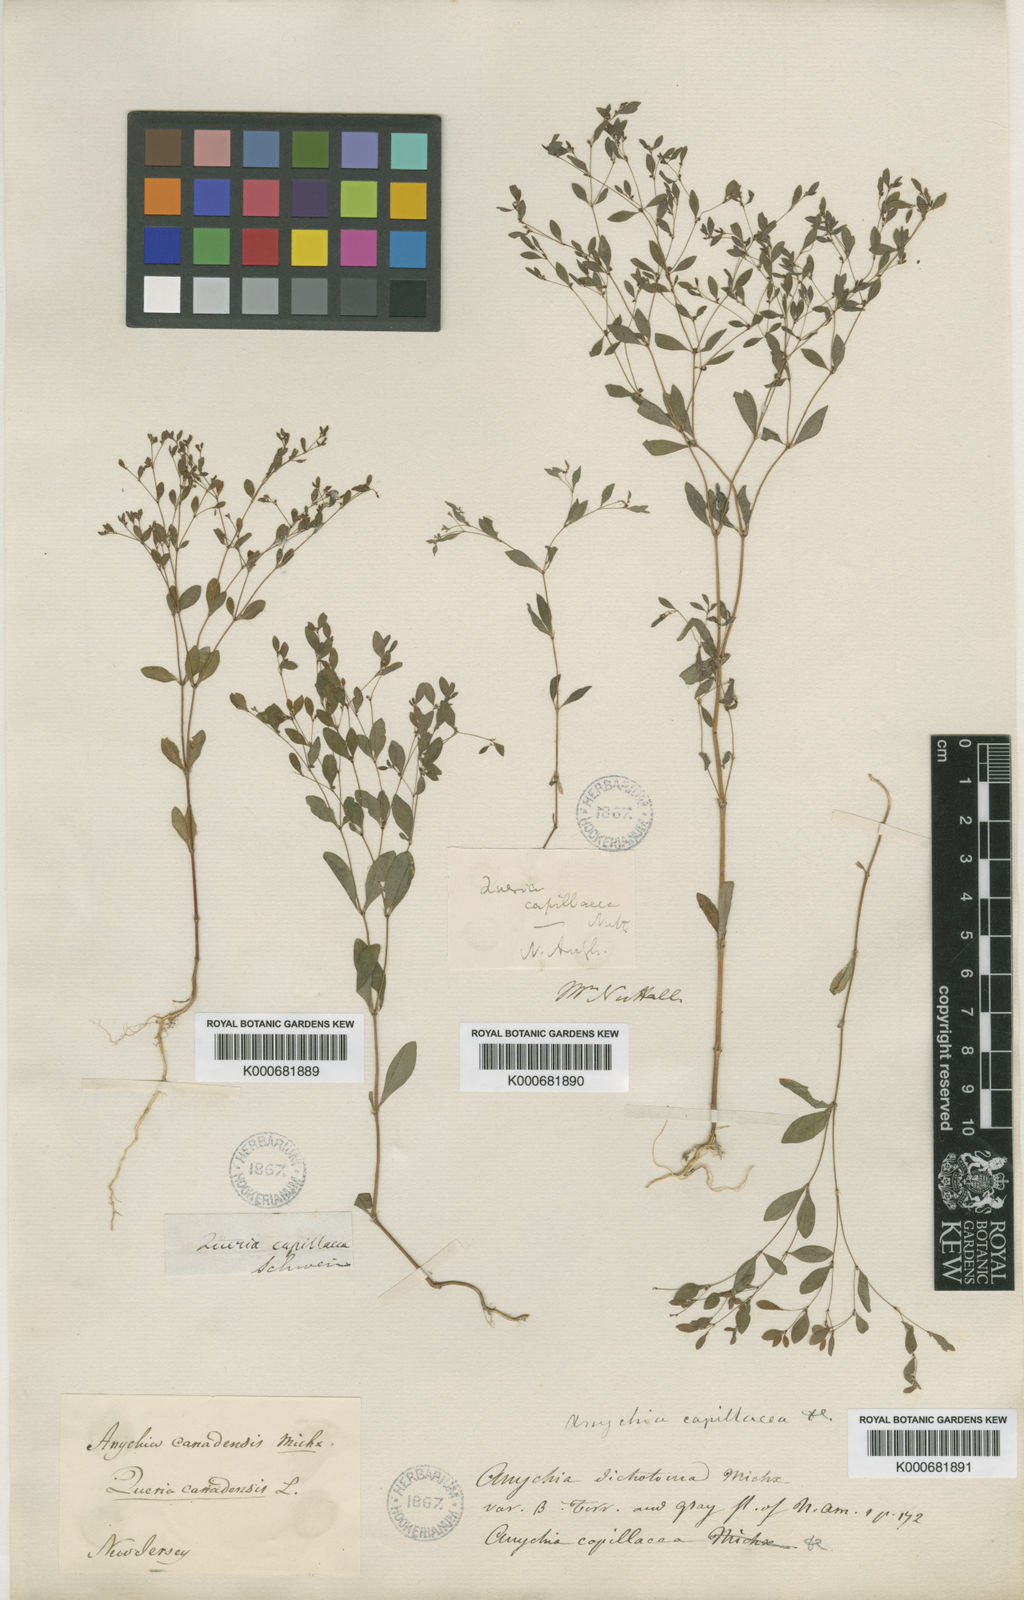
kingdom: Plantae
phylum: Tracheophyta
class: Magnoliopsida
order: Caryophyllales
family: Caryophyllaceae
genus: Paronychia
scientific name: Paronychia
